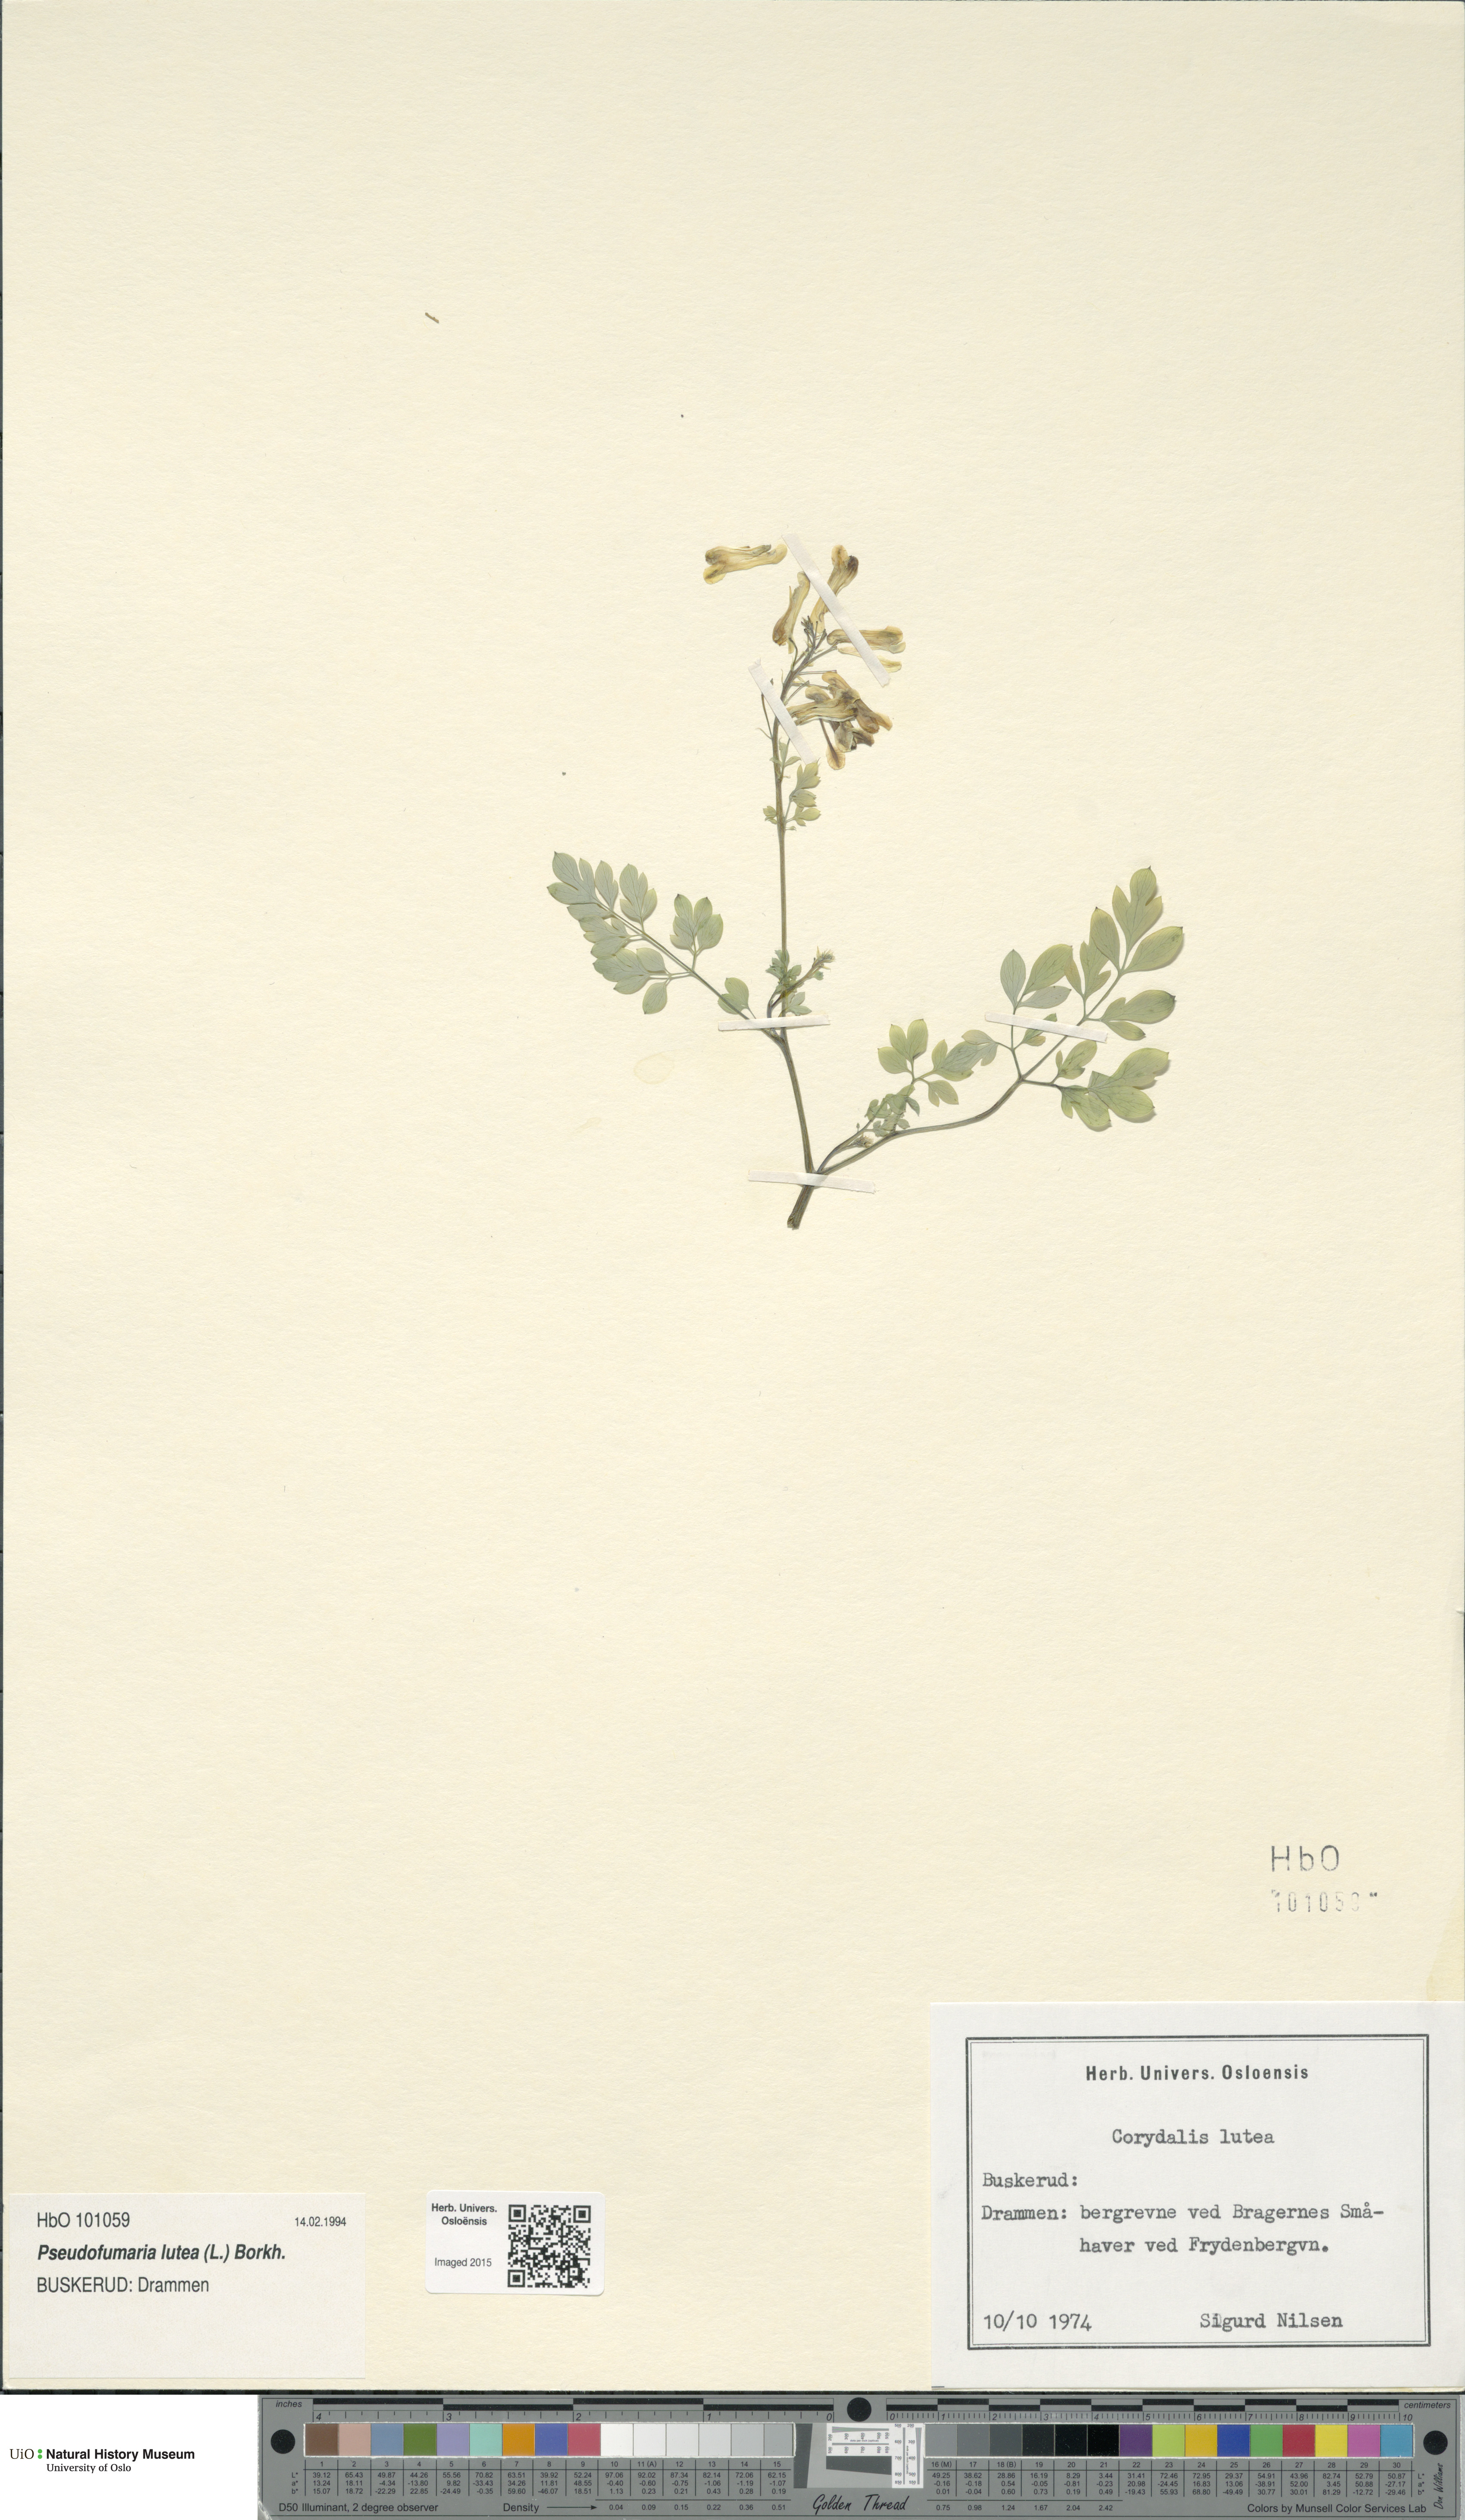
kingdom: Plantae
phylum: Tracheophyta
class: Magnoliopsida
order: Ranunculales
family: Papaveraceae
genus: Pseudofumaria
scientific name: Pseudofumaria lutea
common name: Yellow corydalis
